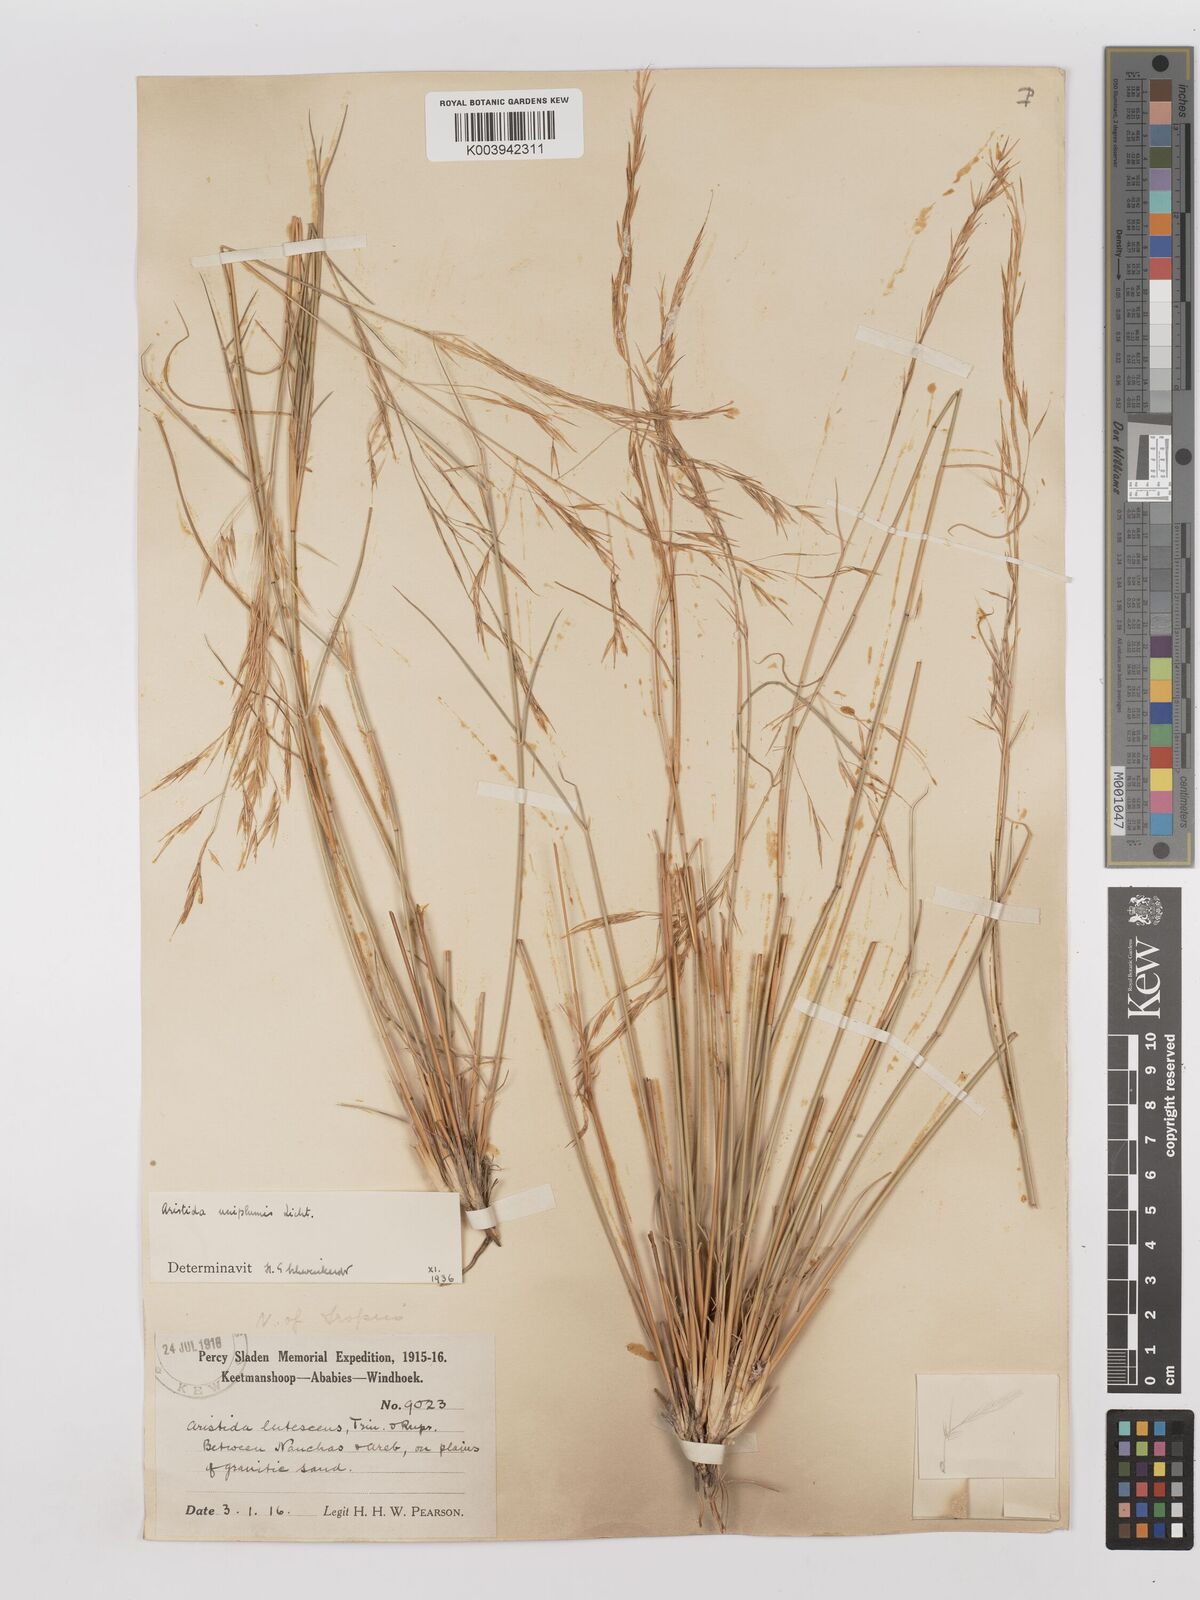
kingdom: Plantae
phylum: Tracheophyta
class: Liliopsida
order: Poales
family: Poaceae
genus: Stipagrostis
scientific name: Stipagrostis uniplumis
